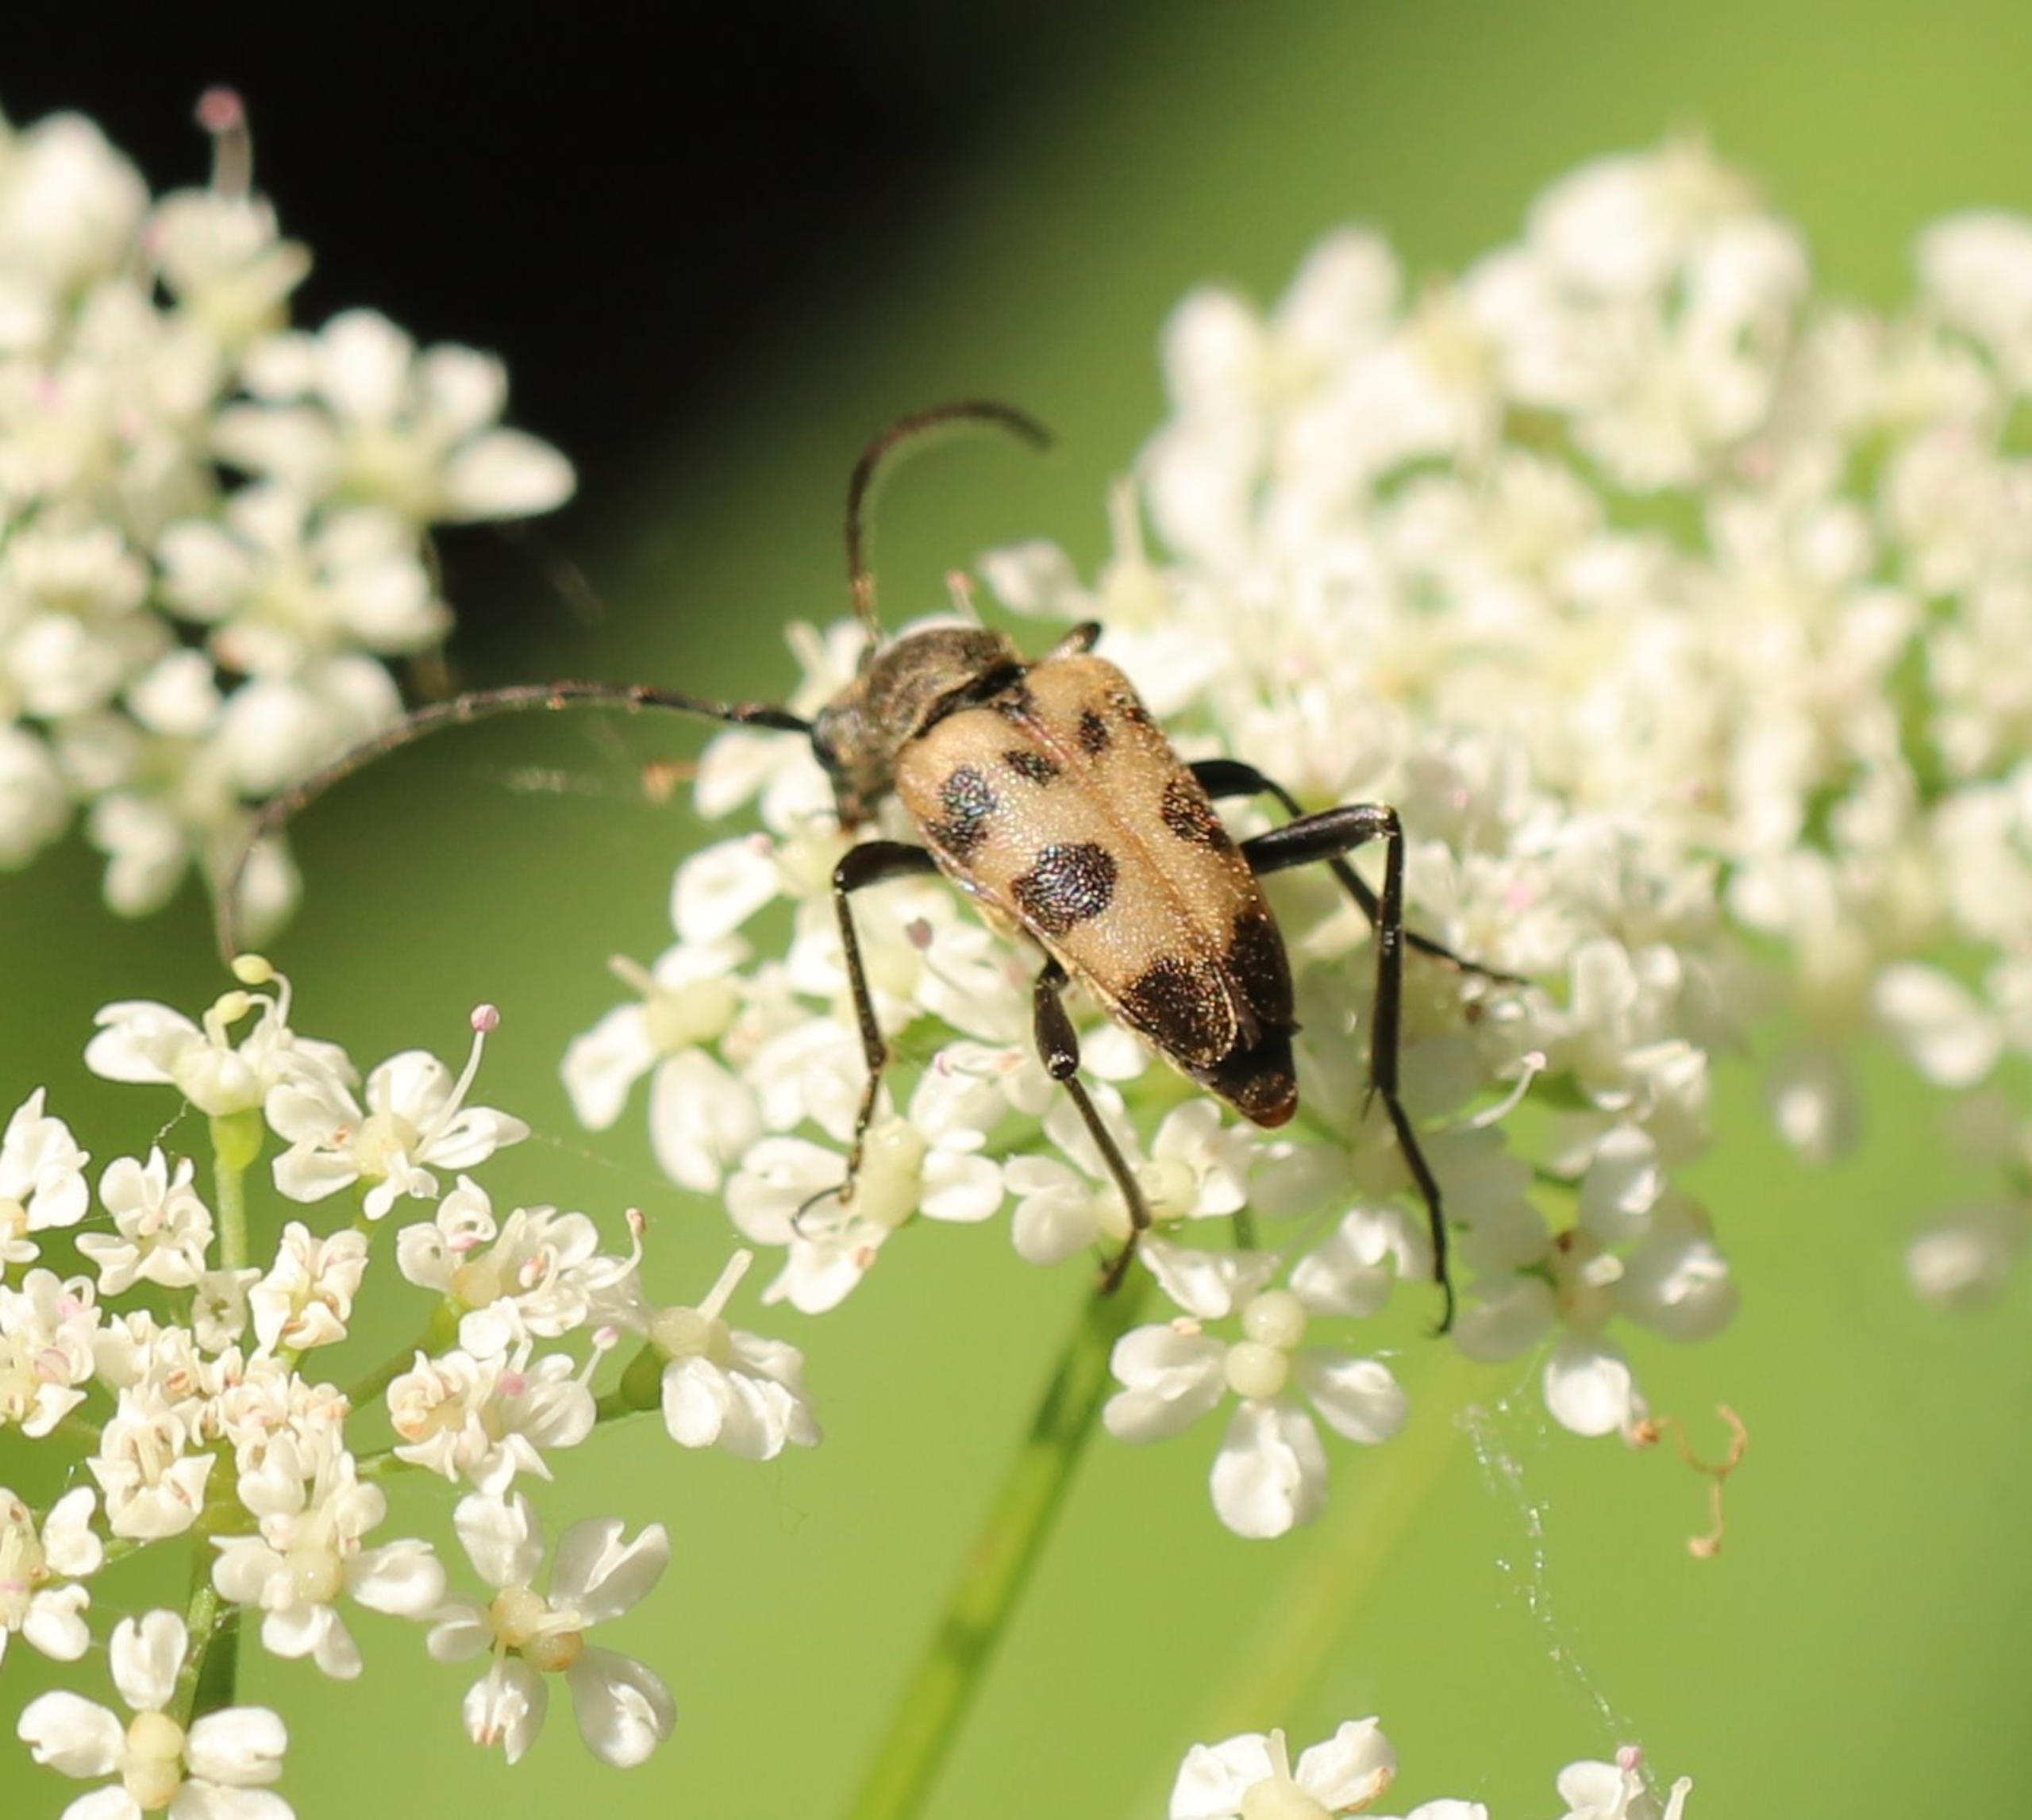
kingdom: Animalia
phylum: Arthropoda
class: Insecta
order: Coleoptera
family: Cerambycidae
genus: Pachytodes
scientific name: Pachytodes cerambyciformis
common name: Jysk blomsterbuk
